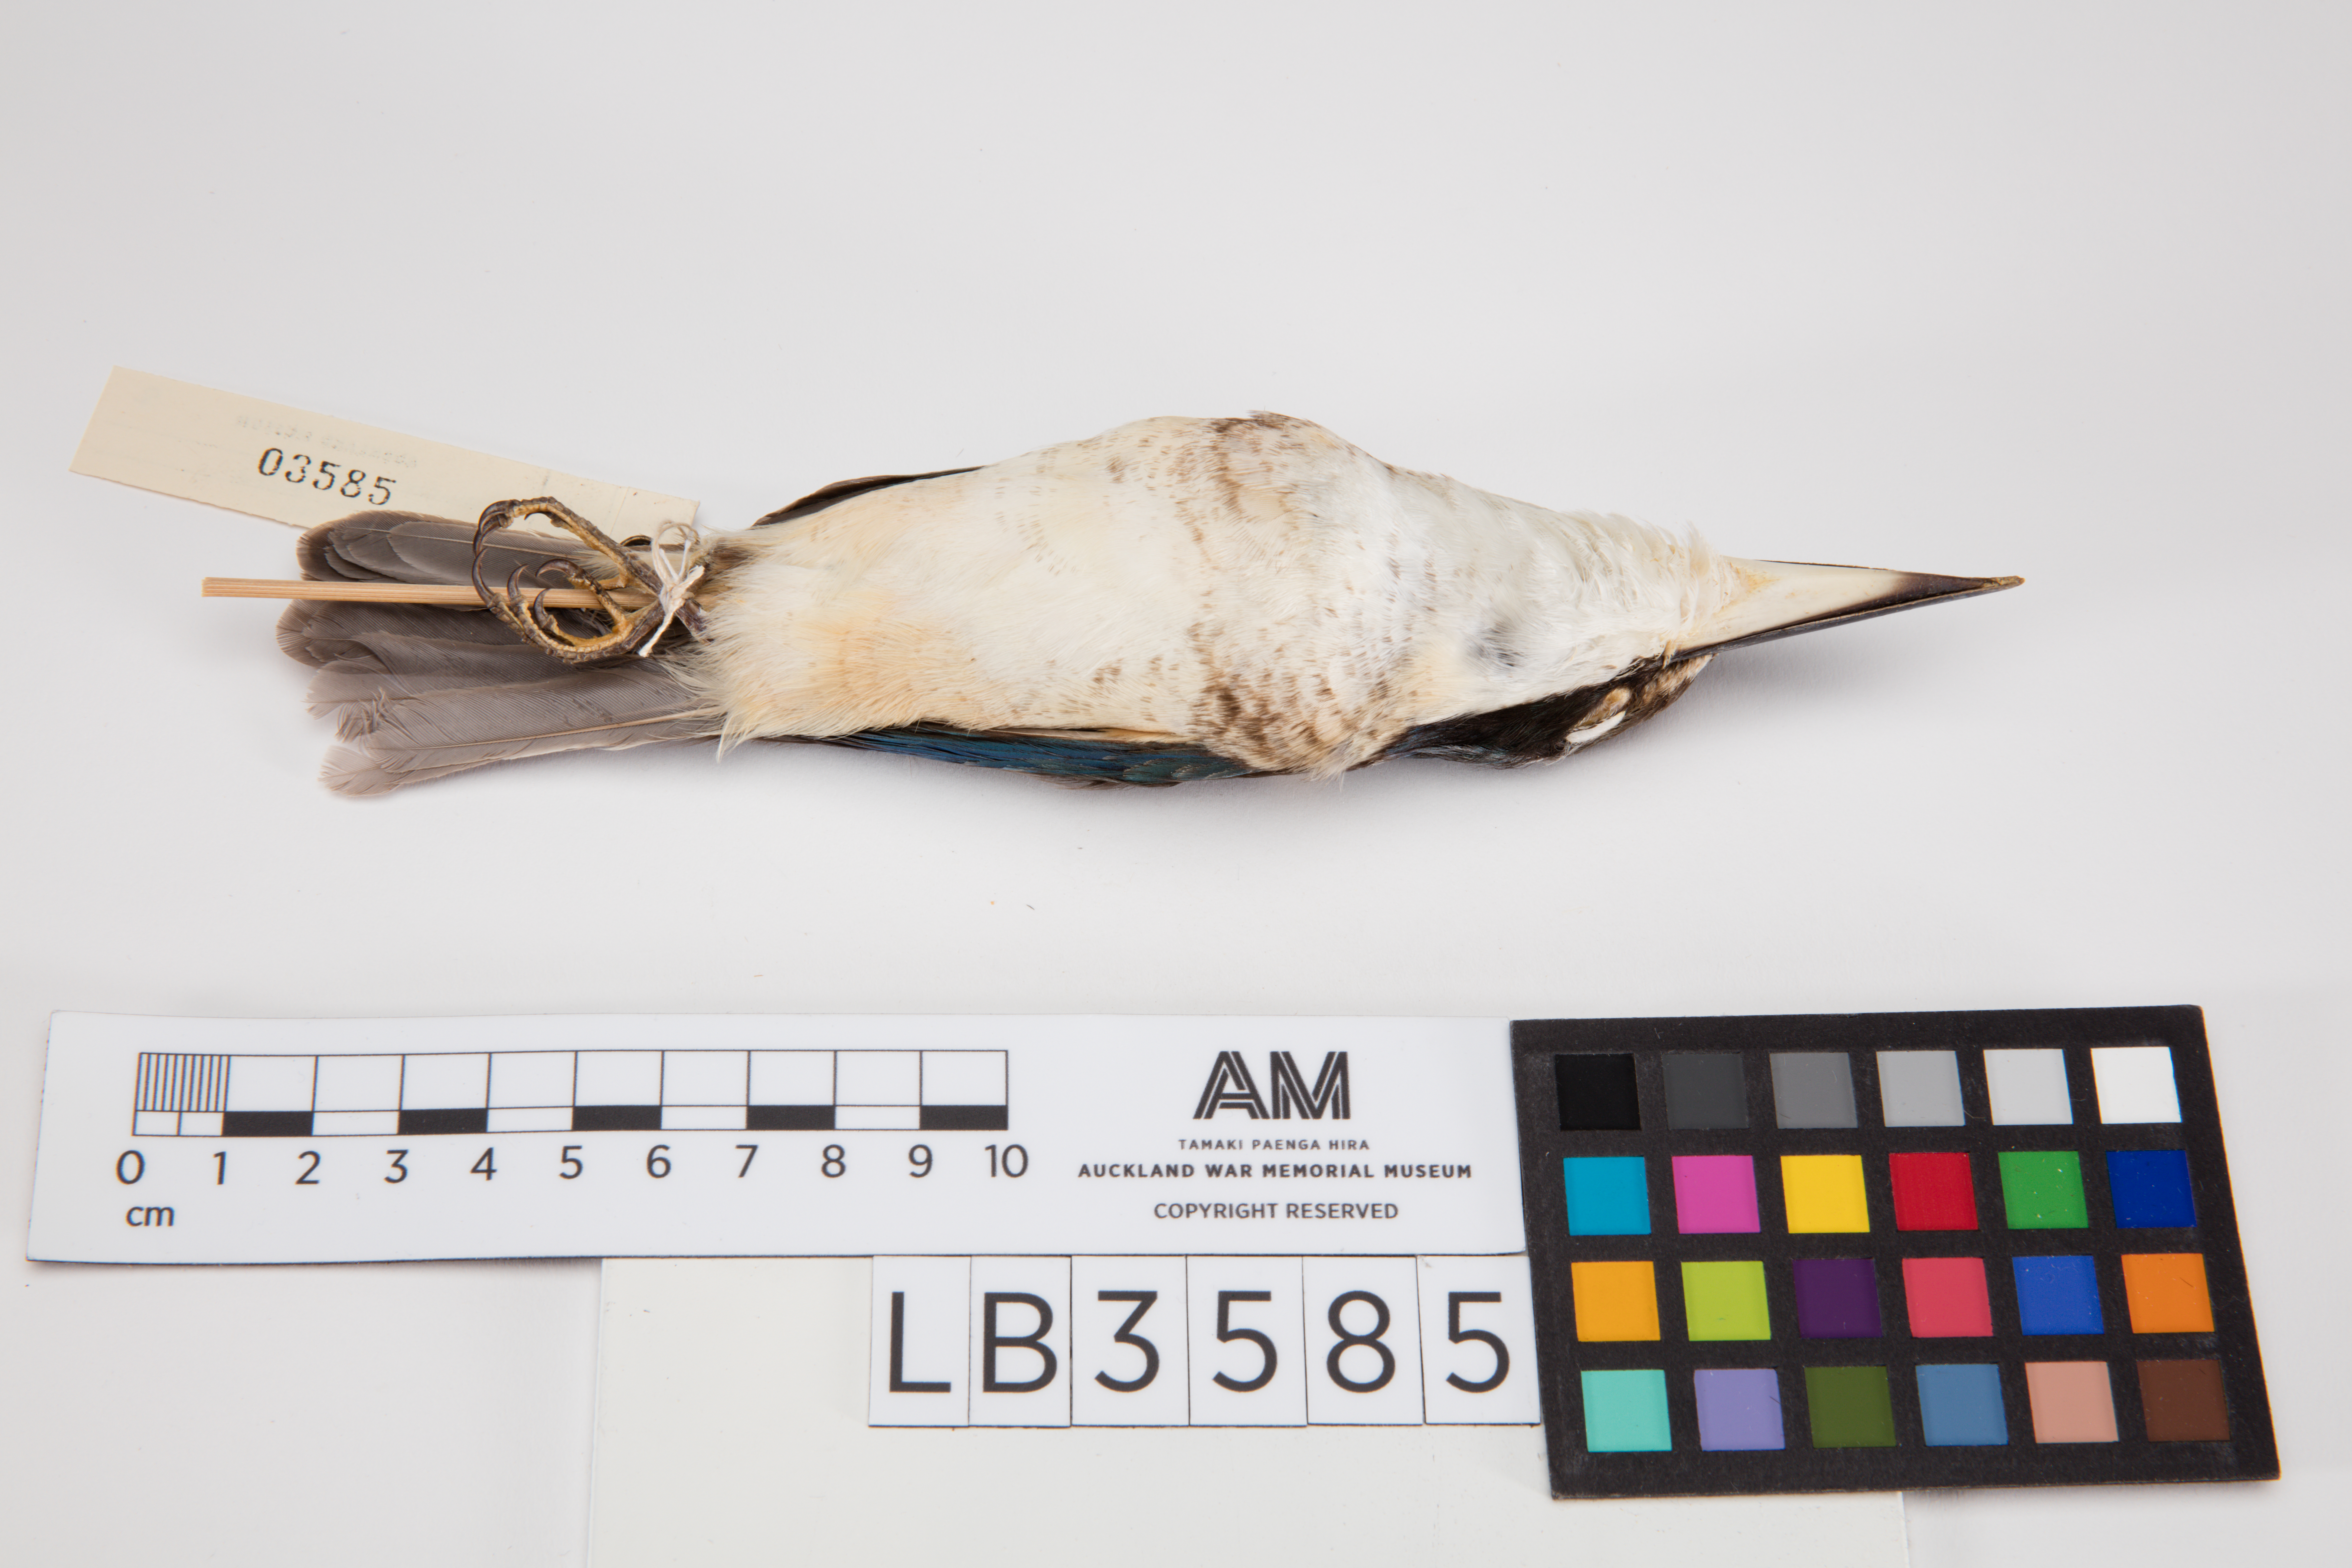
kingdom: Animalia
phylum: Chordata
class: Aves
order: Coraciiformes
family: Alcedinidae
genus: Todiramphus
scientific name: Todiramphus sanctus
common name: Sacred kingfisher
